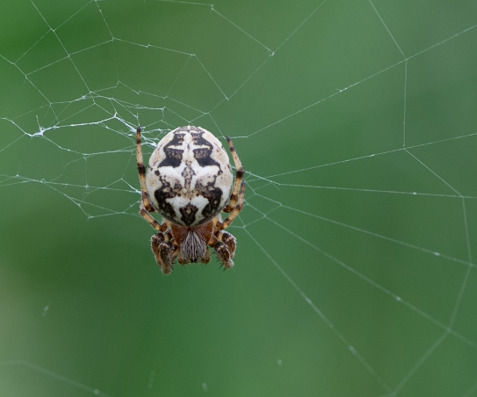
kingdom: Animalia
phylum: Arthropoda
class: Arachnida
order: Araneae
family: Araneidae
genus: Larinioides
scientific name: Larinioides cornutus
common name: Sivhjulspinder
